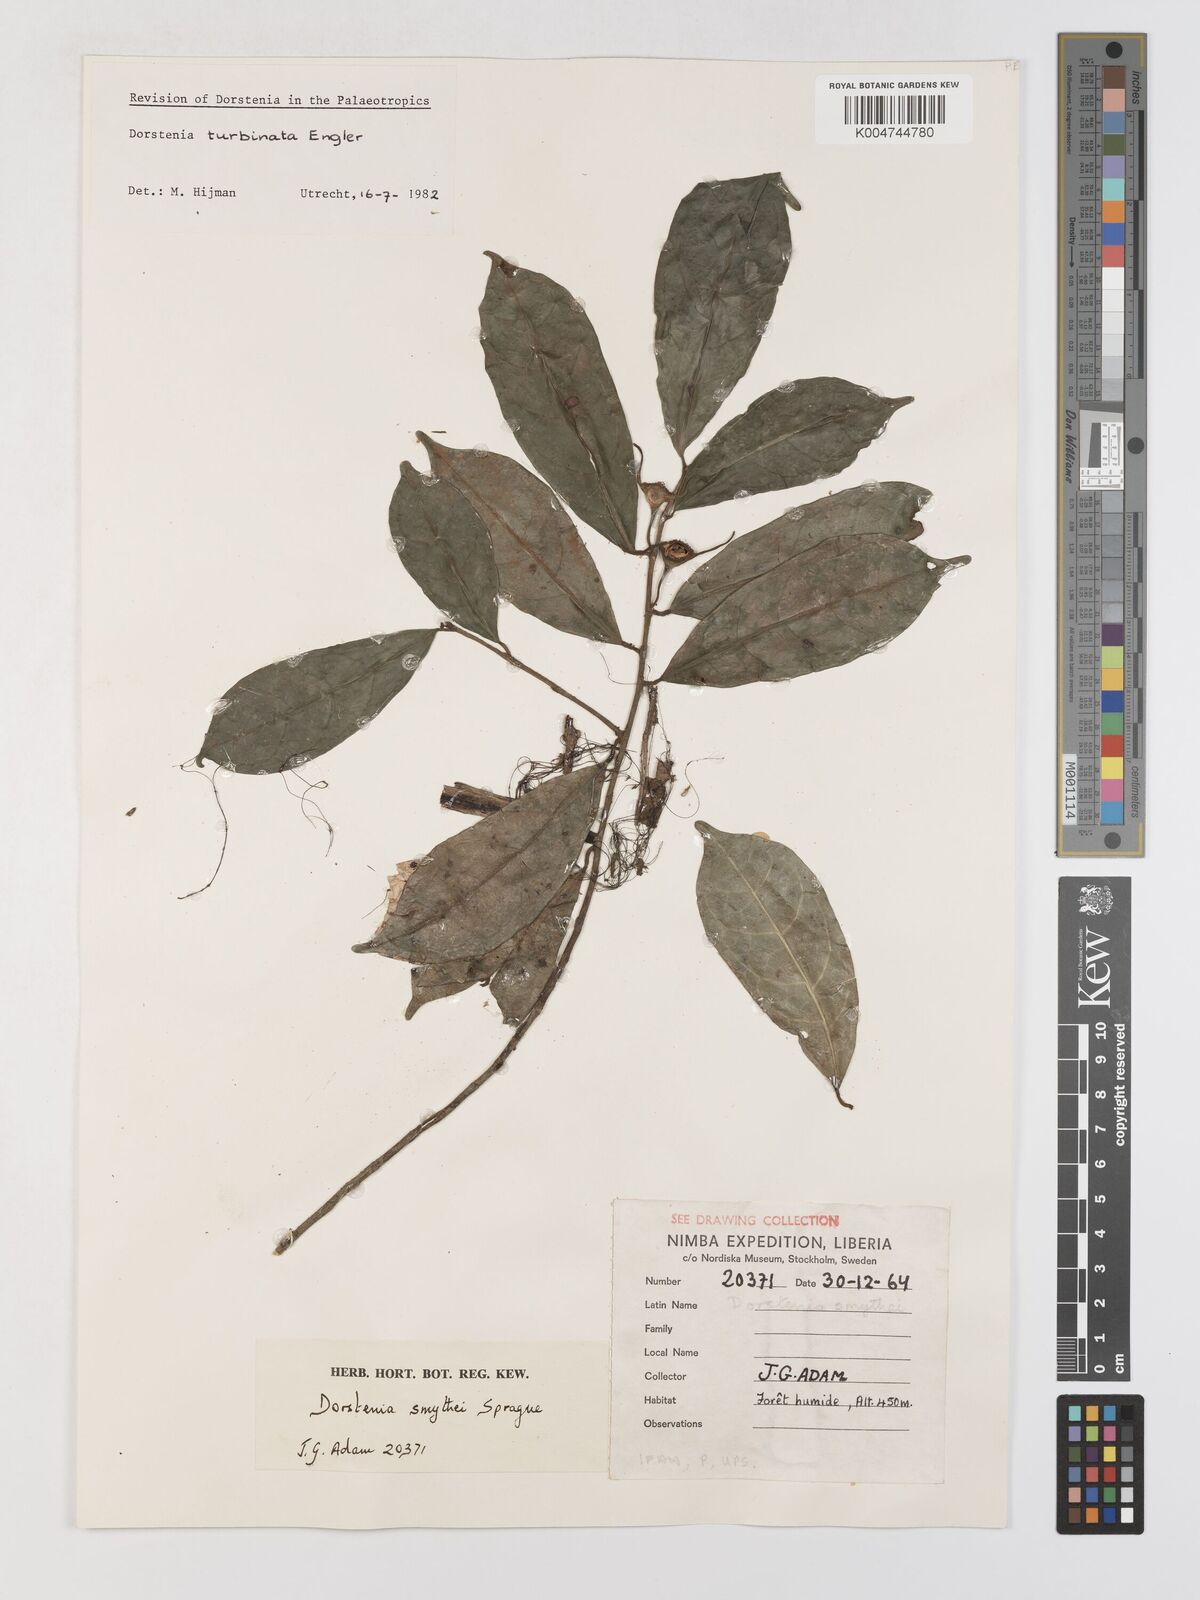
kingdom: Plantae
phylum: Tracheophyta
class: Magnoliopsida
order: Rosales
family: Moraceae
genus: Hijmania
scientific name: Hijmania turbinata
